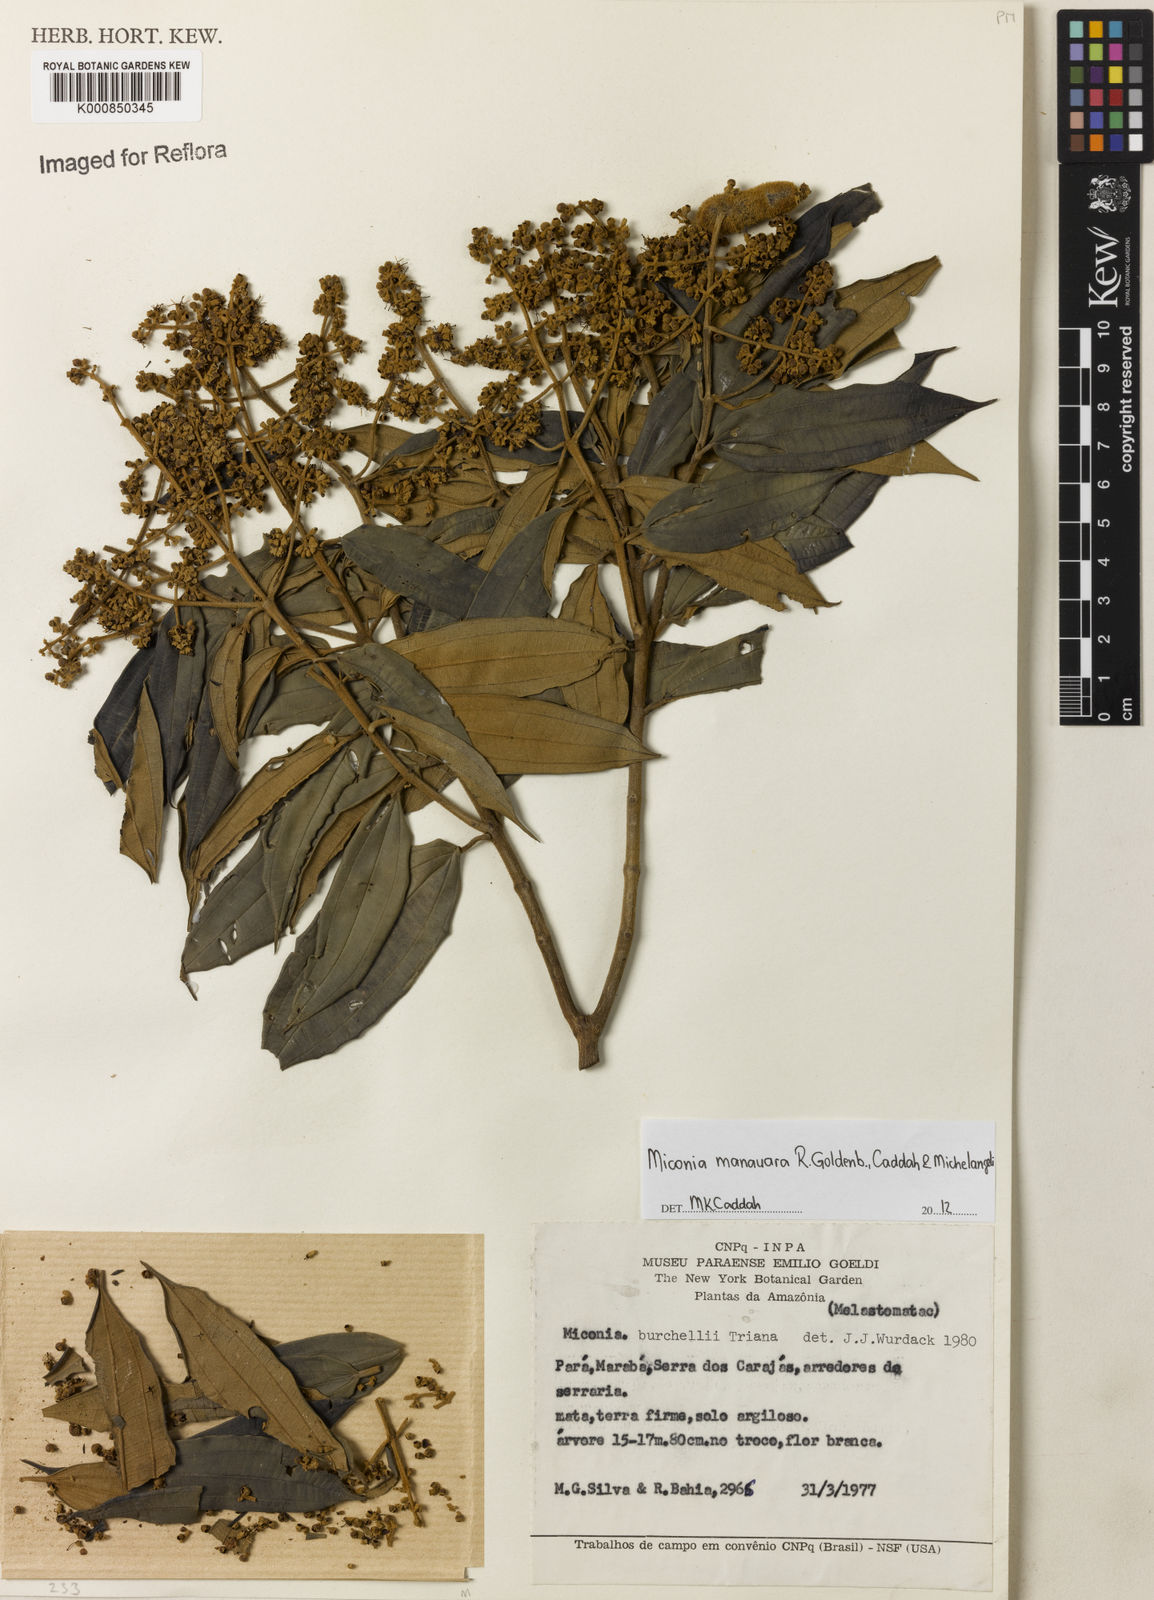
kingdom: Plantae
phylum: Tracheophyta
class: Magnoliopsida
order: Myrtales
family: Melastomataceae
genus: Miconia
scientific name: Miconia manauara
